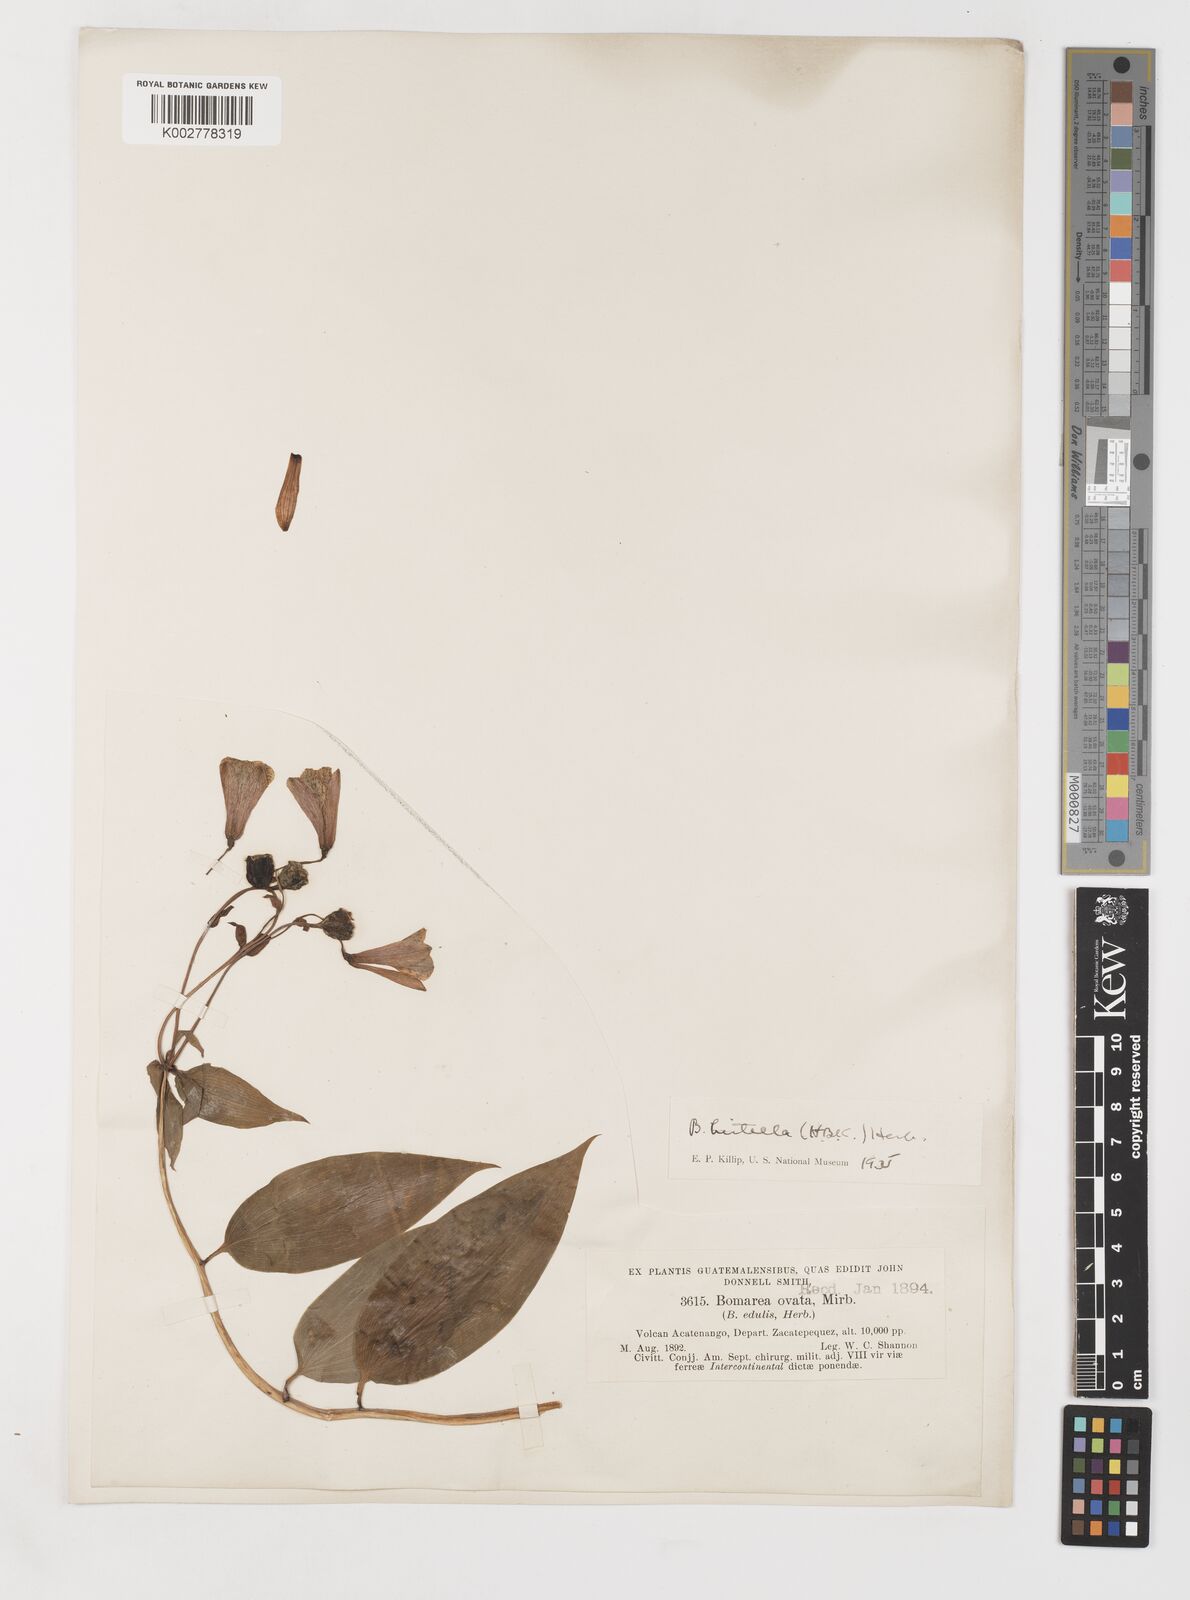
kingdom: Plantae
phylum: Tracheophyta
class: Liliopsida
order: Liliales
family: Alstroemeriaceae
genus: Bomarea
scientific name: Bomarea edulis
